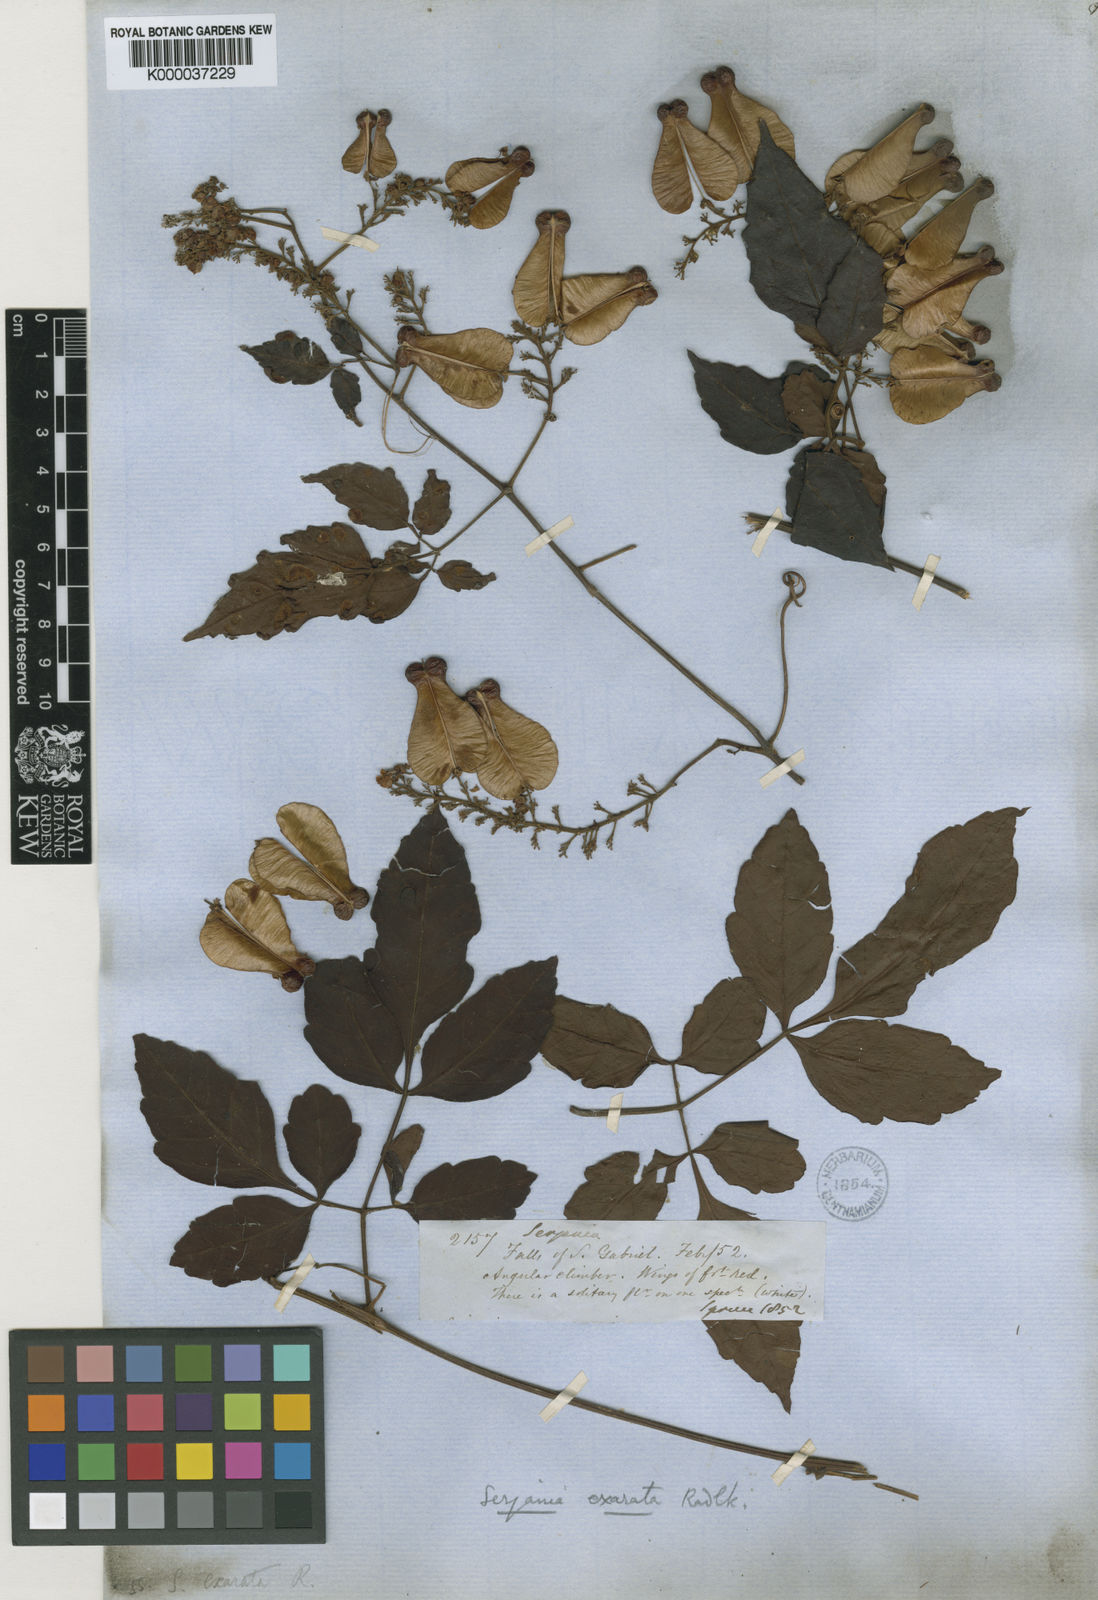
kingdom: Plantae
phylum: Tracheophyta
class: Magnoliopsida
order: Sapindales
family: Sapindaceae
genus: Serjania
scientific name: Serjania membranacea
